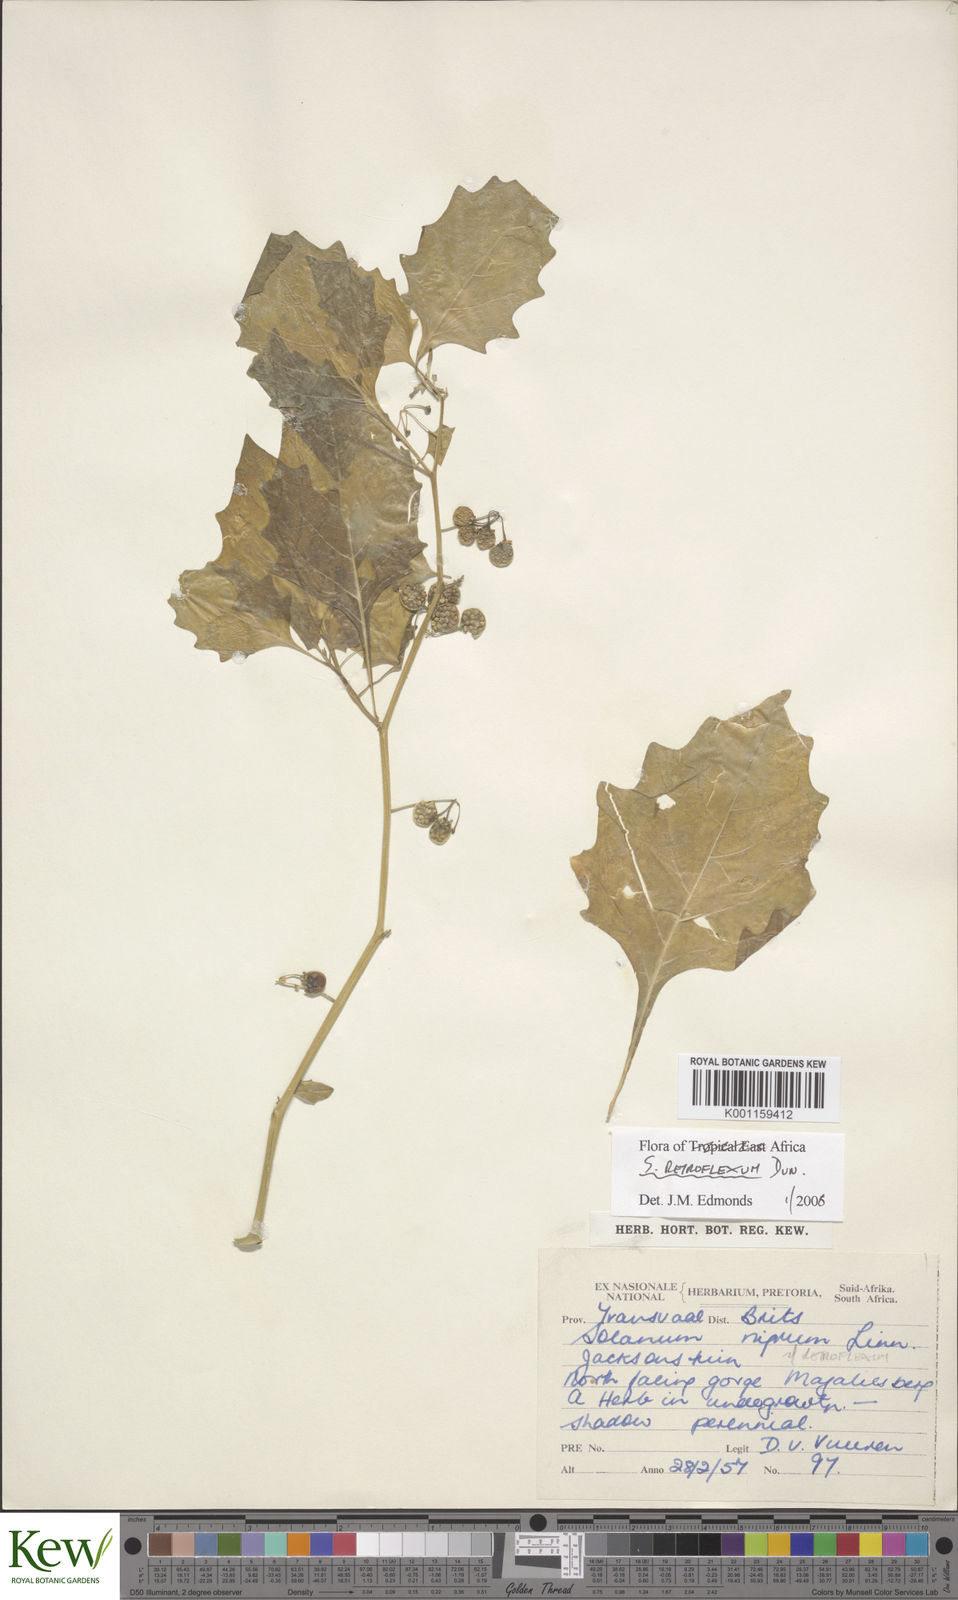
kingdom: Plantae
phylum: Tracheophyta
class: Magnoliopsida
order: Solanales
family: Solanaceae
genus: Solanum
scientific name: Solanum retroflexum
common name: Wonderberry
